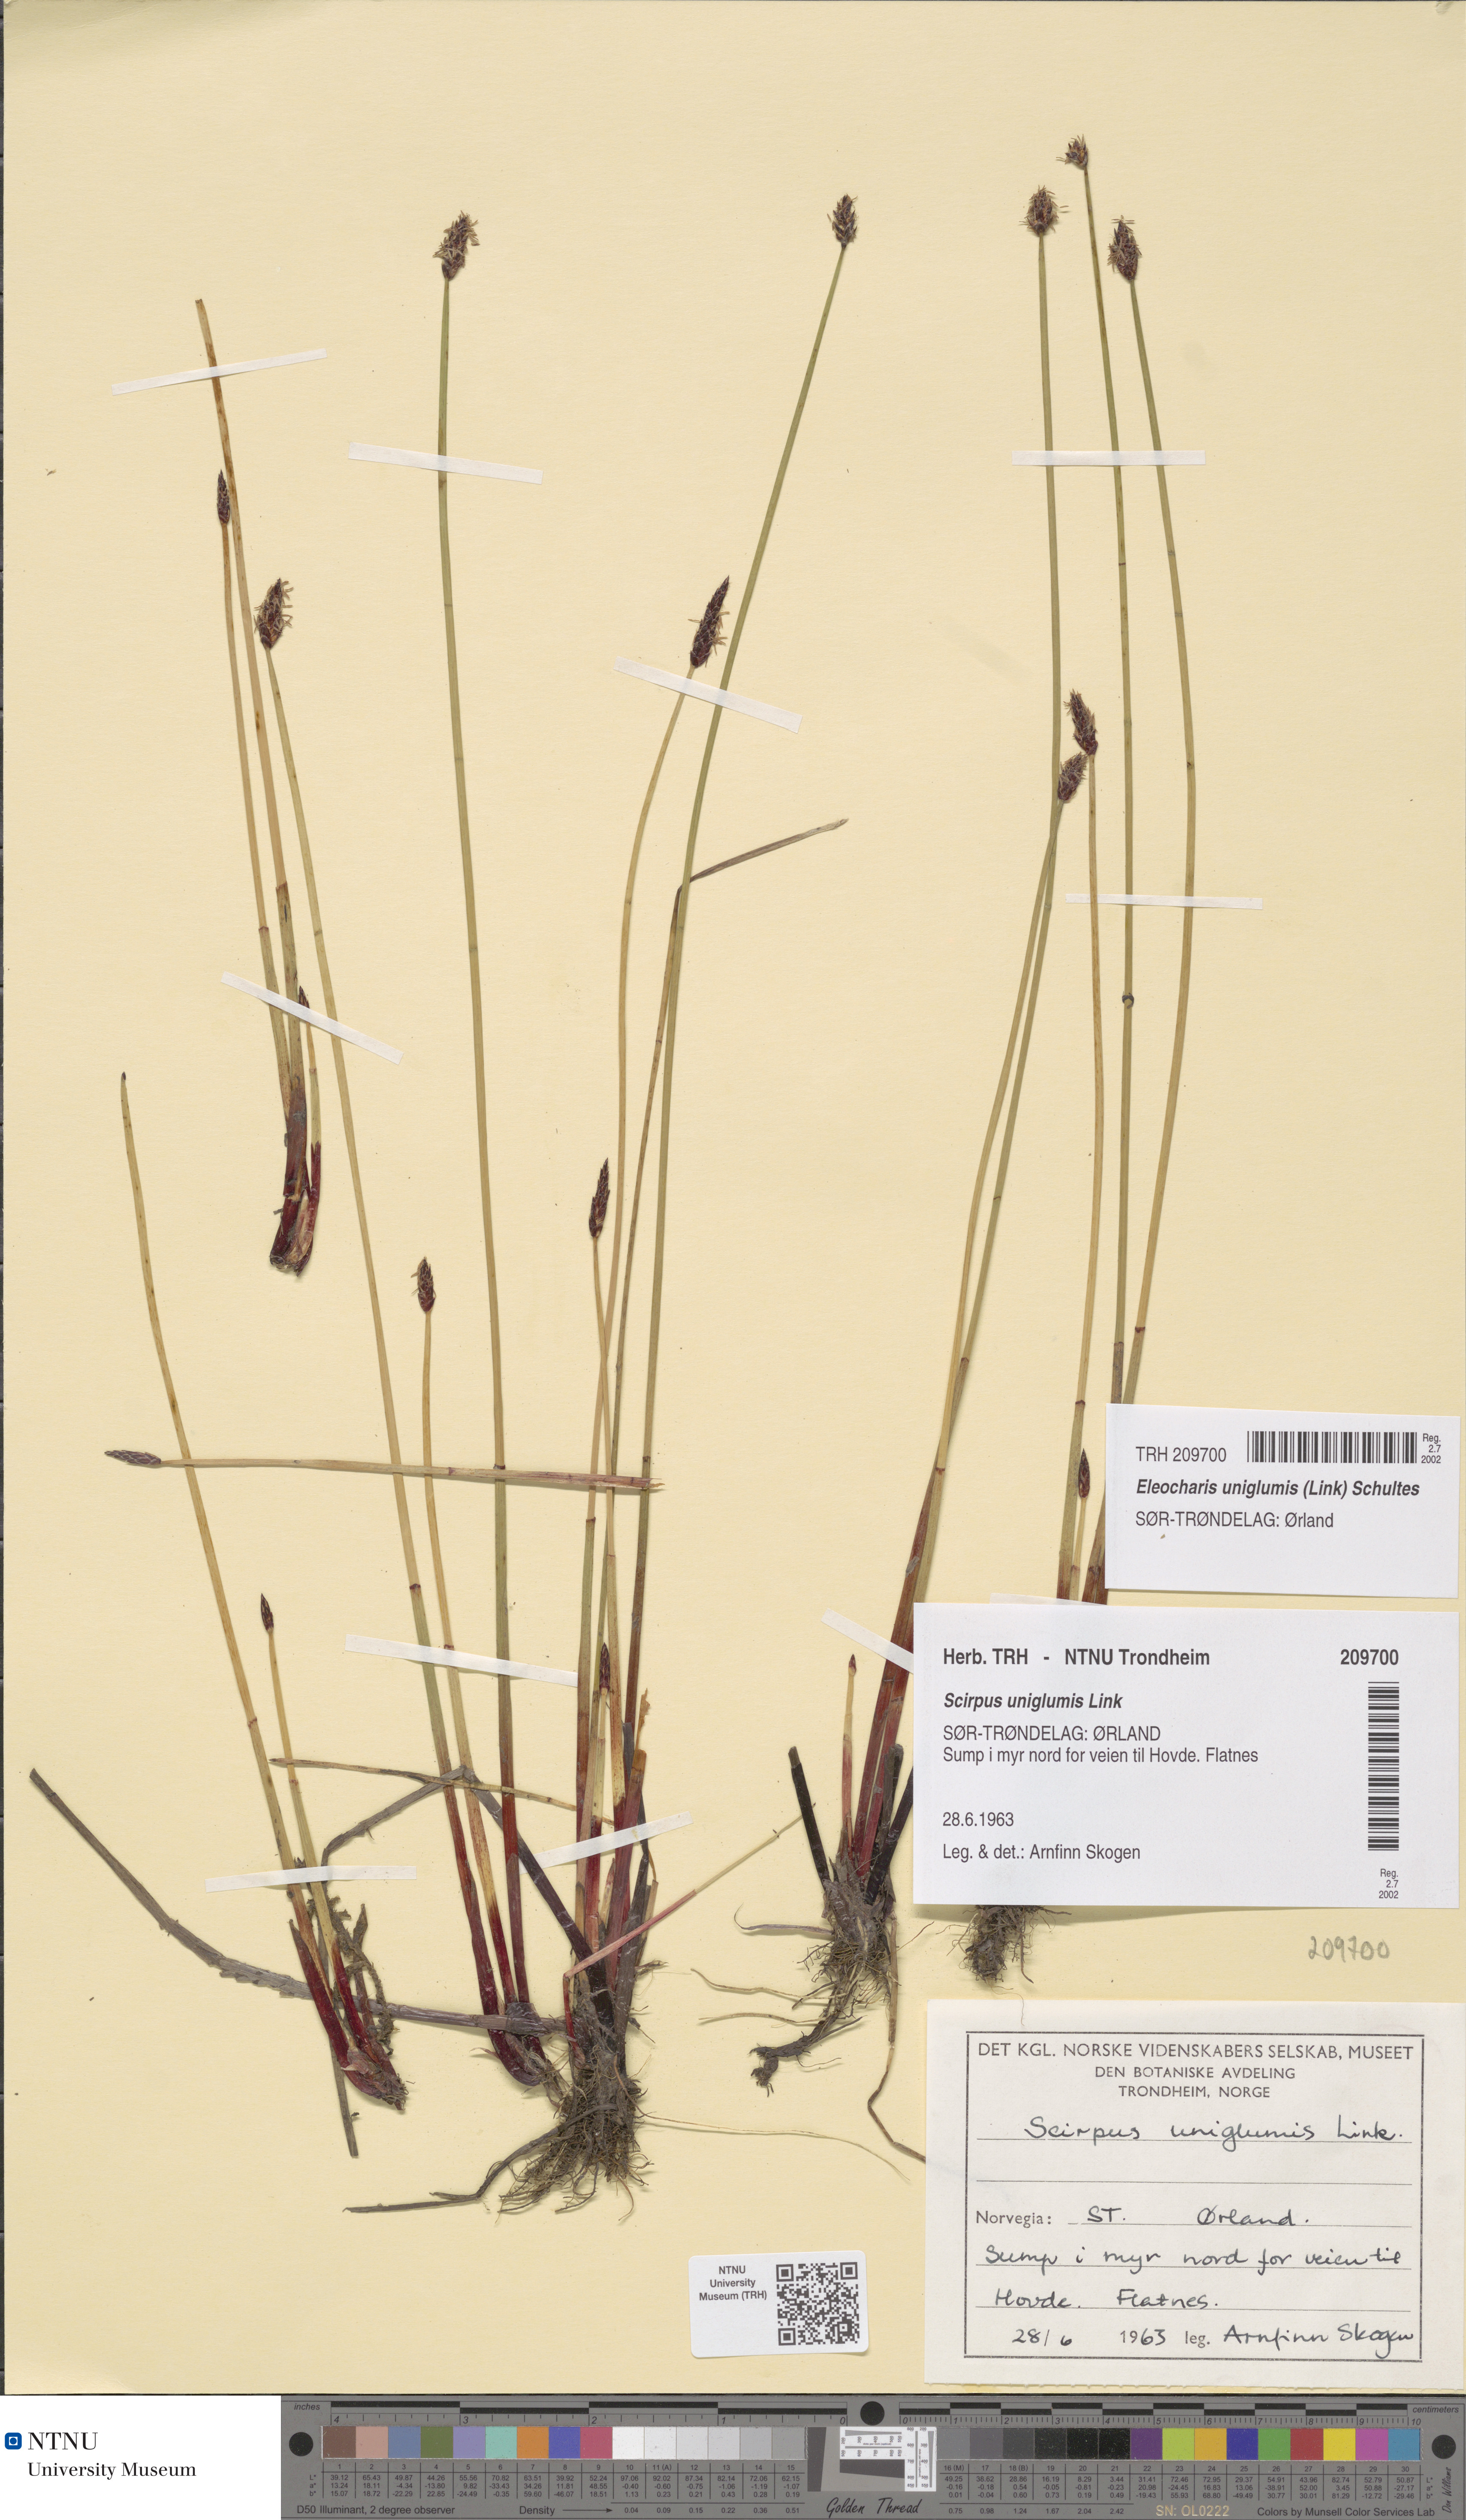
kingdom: Plantae
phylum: Tracheophyta
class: Liliopsida
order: Poales
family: Cyperaceae
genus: Eleocharis
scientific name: Eleocharis uniglumis
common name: Slender spike-rush
